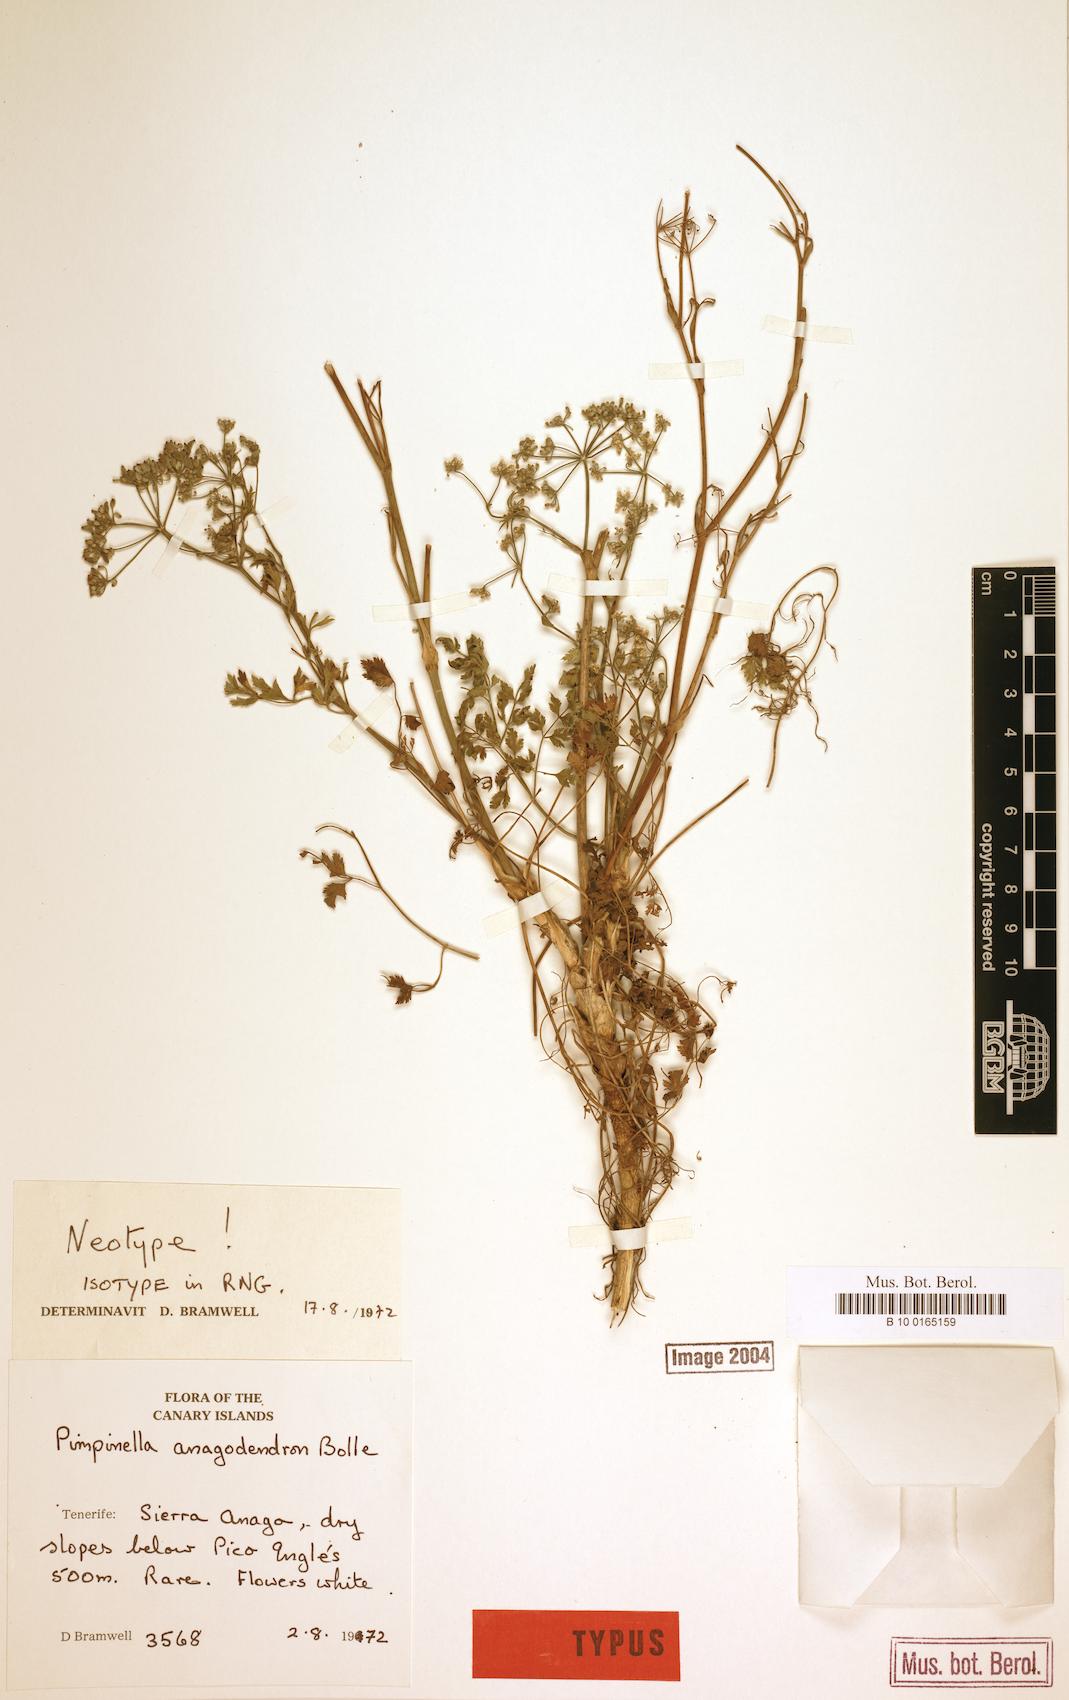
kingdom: Plantae
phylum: Tracheophyta
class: Magnoliopsida
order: Apiales
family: Apiaceae
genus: Pimpinella
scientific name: Pimpinella anagodendron
